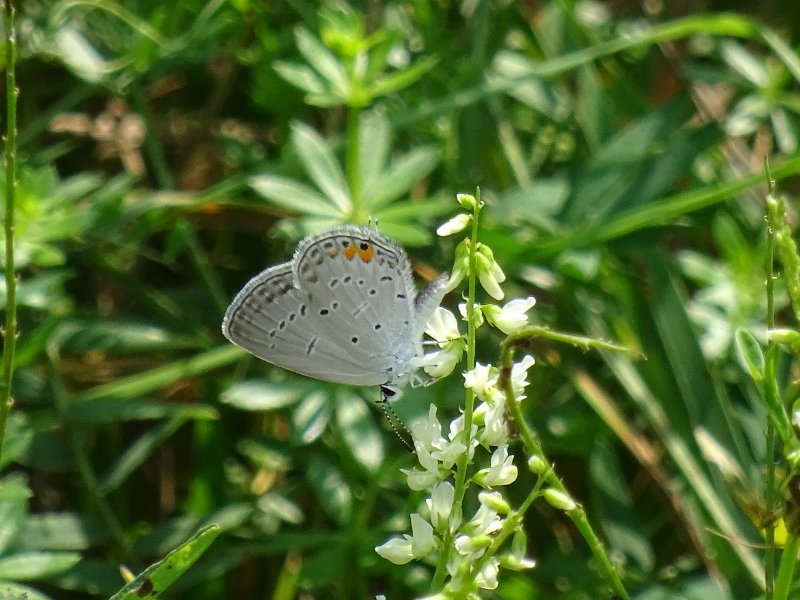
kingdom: Animalia
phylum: Arthropoda
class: Insecta
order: Lepidoptera
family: Lycaenidae
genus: Elkalyce
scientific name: Elkalyce comyntas
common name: Eastern Tailed-Blue
